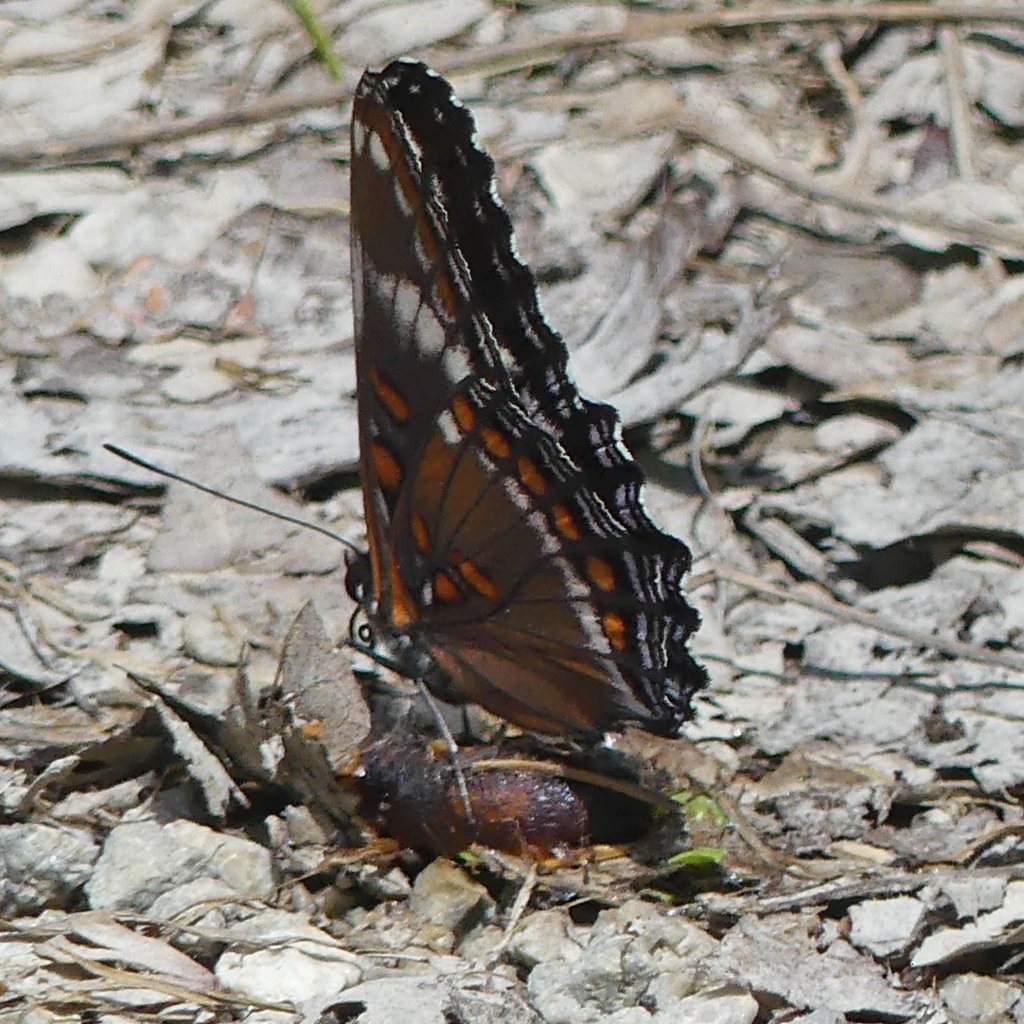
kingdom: Animalia
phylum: Arthropoda
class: Insecta
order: Lepidoptera
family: Nymphalidae
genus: Limenitis
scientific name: Limenitis
